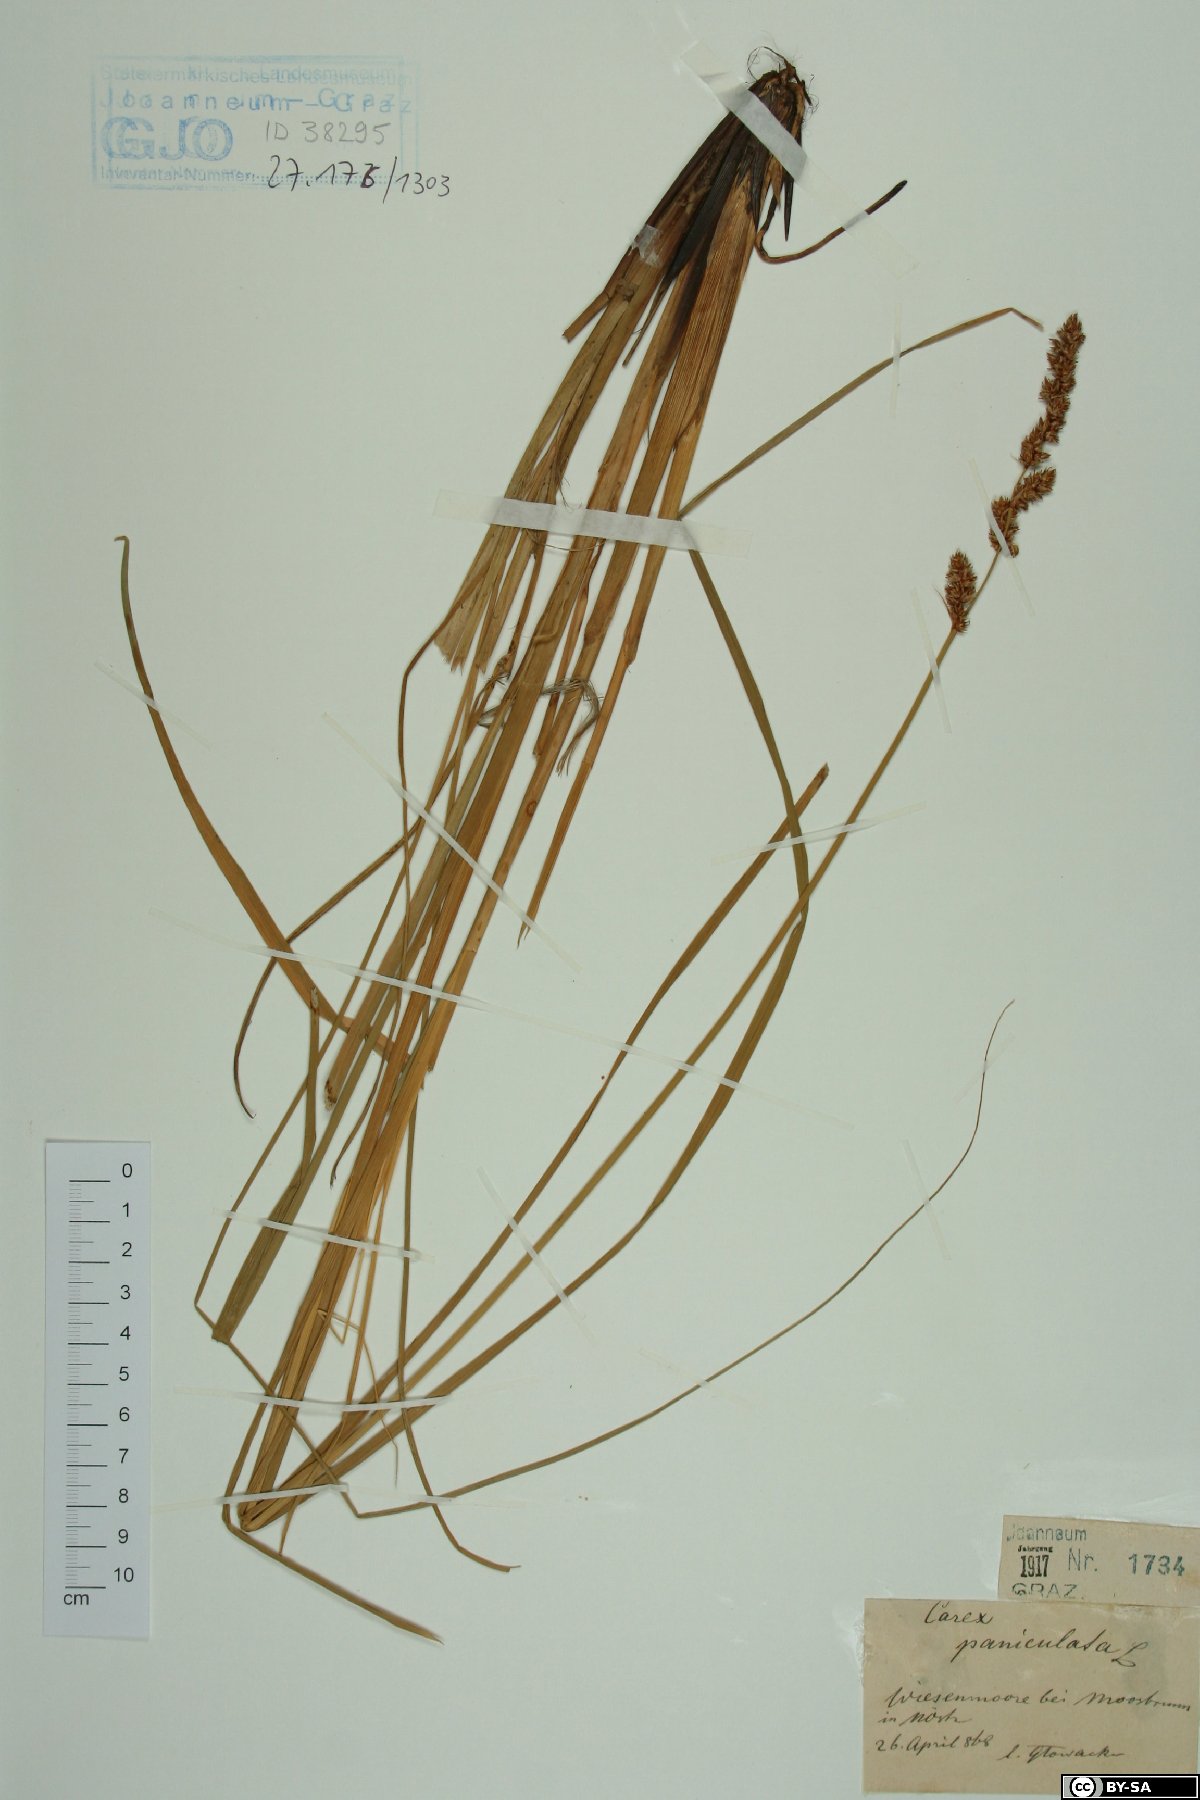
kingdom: Plantae
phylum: Tracheophyta
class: Liliopsida
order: Poales
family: Cyperaceae
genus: Carex
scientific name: Carex paniculata
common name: Greater tussock-sedge
